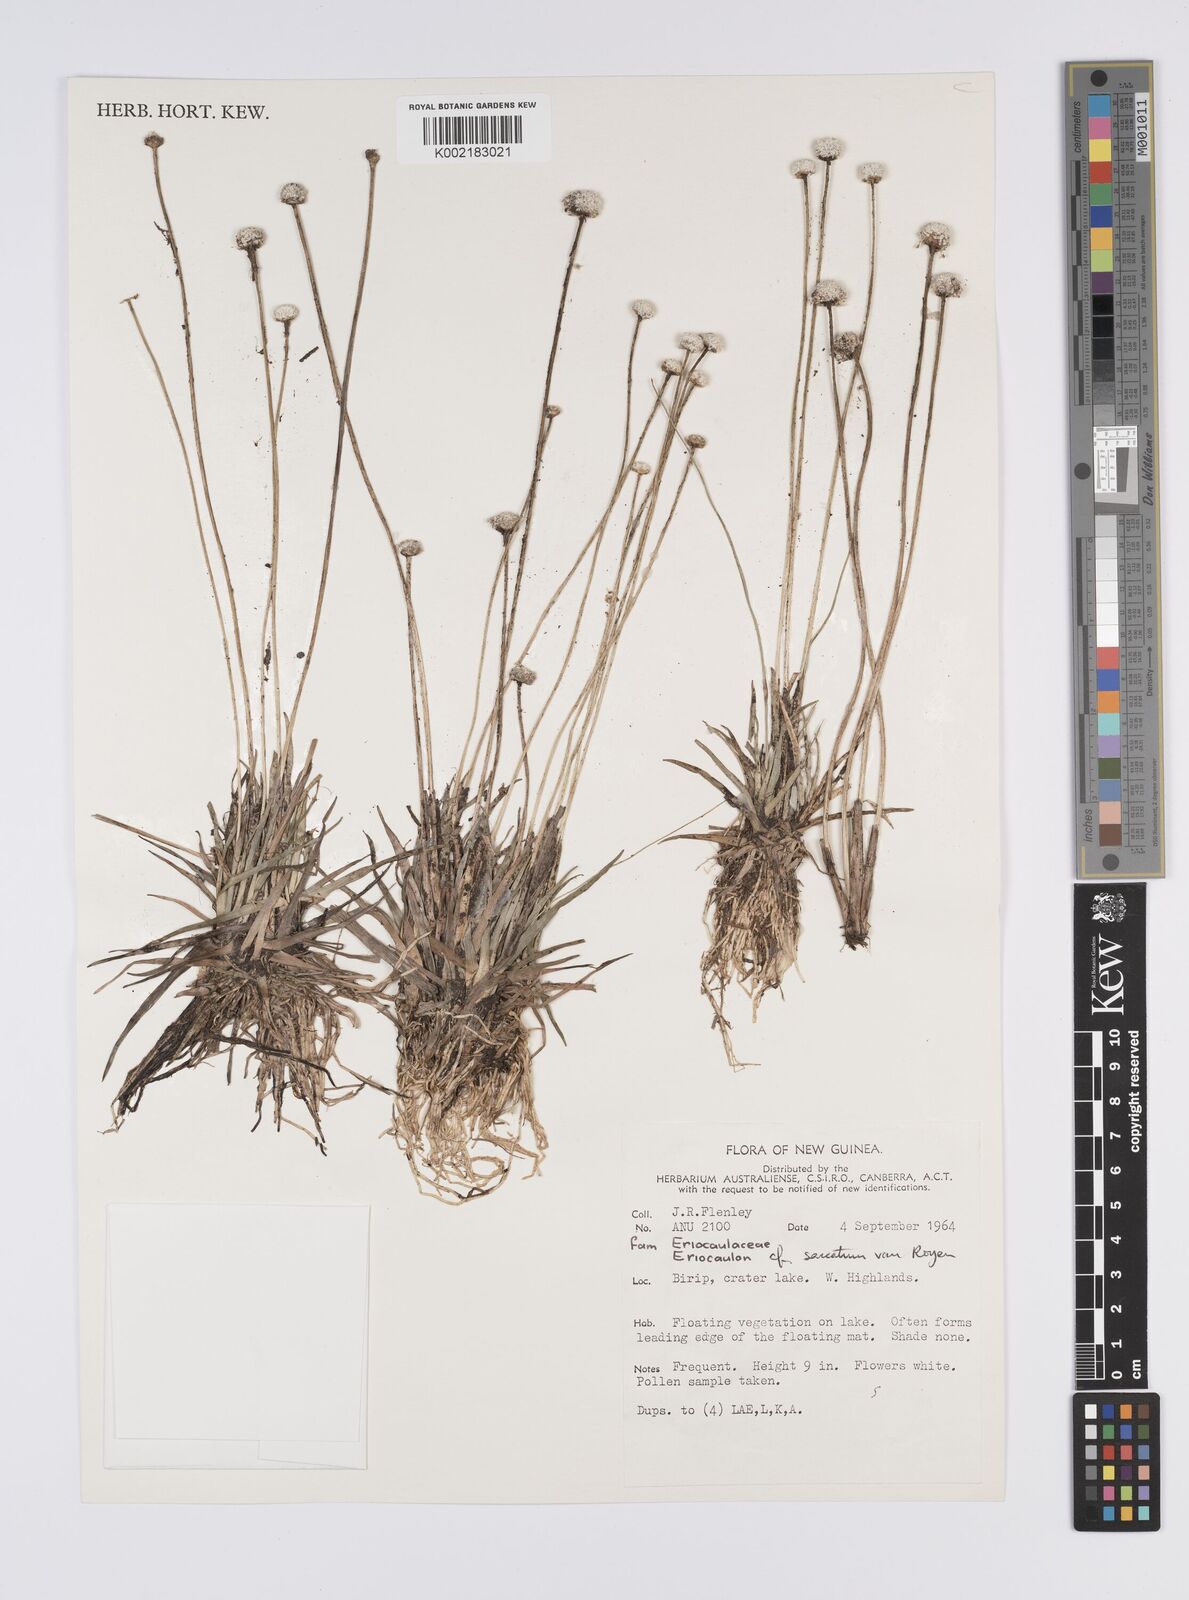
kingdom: Plantae
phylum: Tracheophyta
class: Liliopsida
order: Poales
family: Eriocaulaceae
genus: Eriocaulon
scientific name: Eriocaulon saccatum
